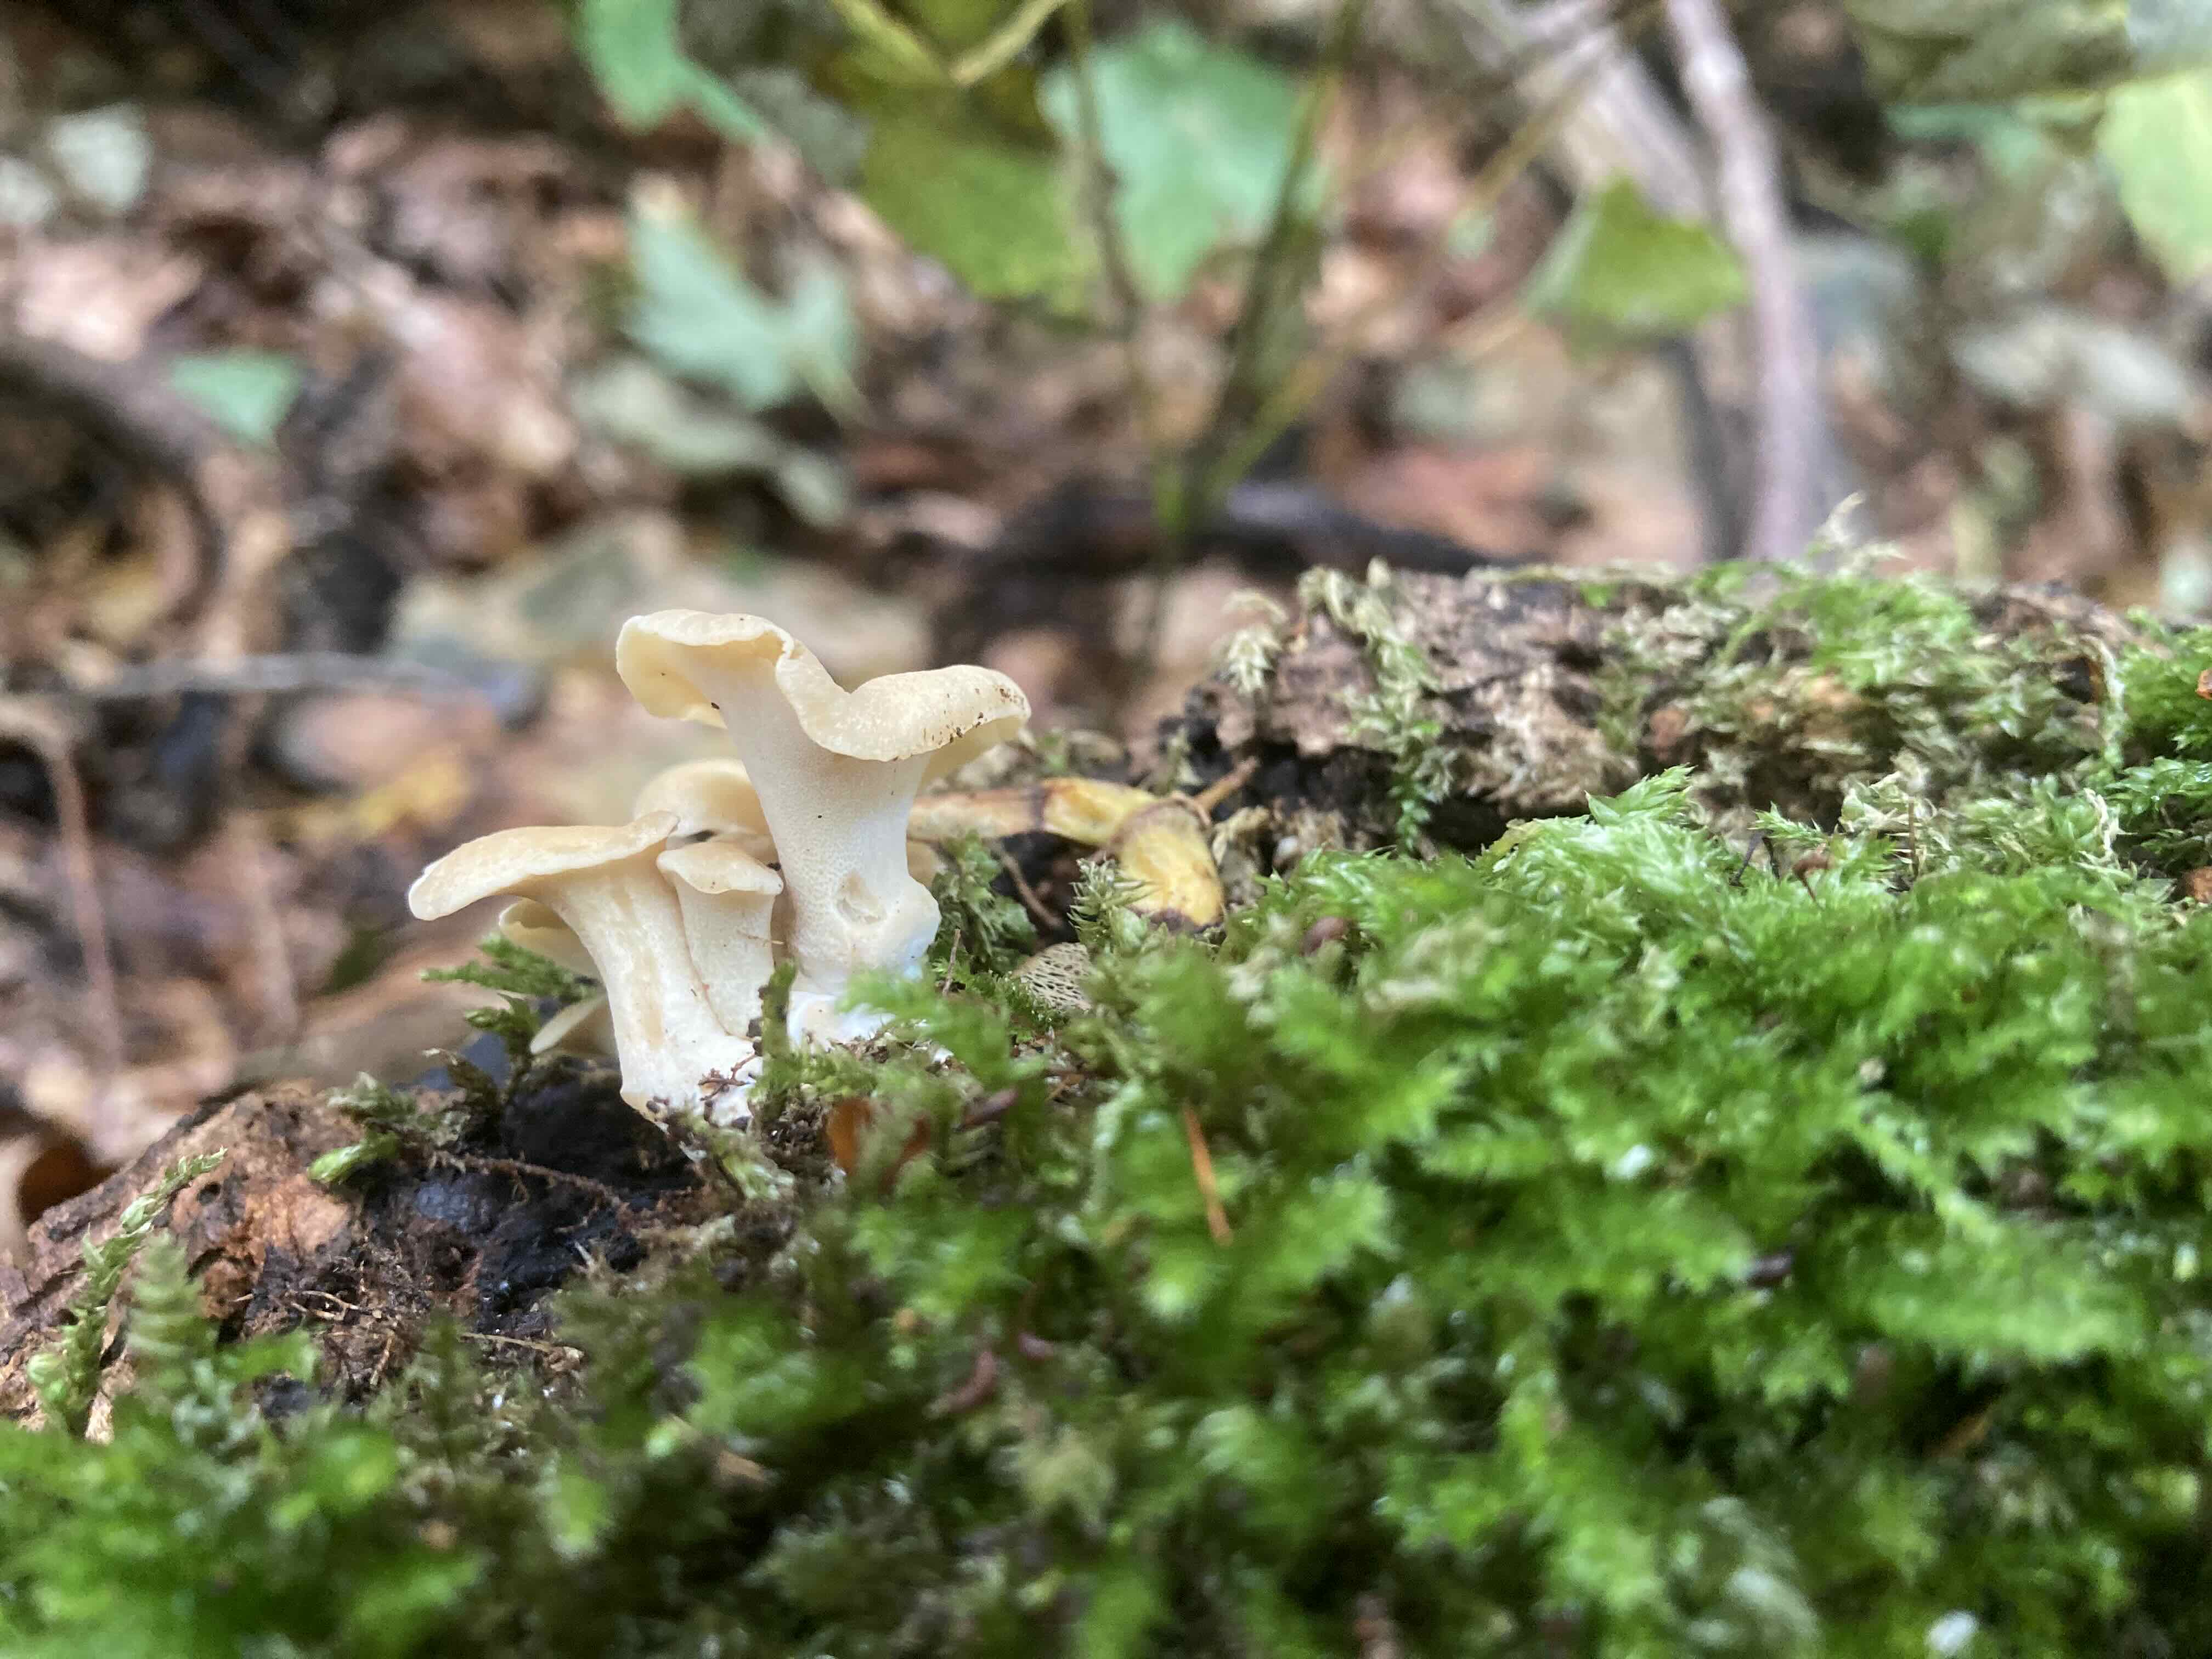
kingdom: Fungi
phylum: Basidiomycota
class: Agaricomycetes
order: Polyporales
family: Polyporaceae
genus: Cerioporus
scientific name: Cerioporus varius
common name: foranderlig stilkporesvamp
